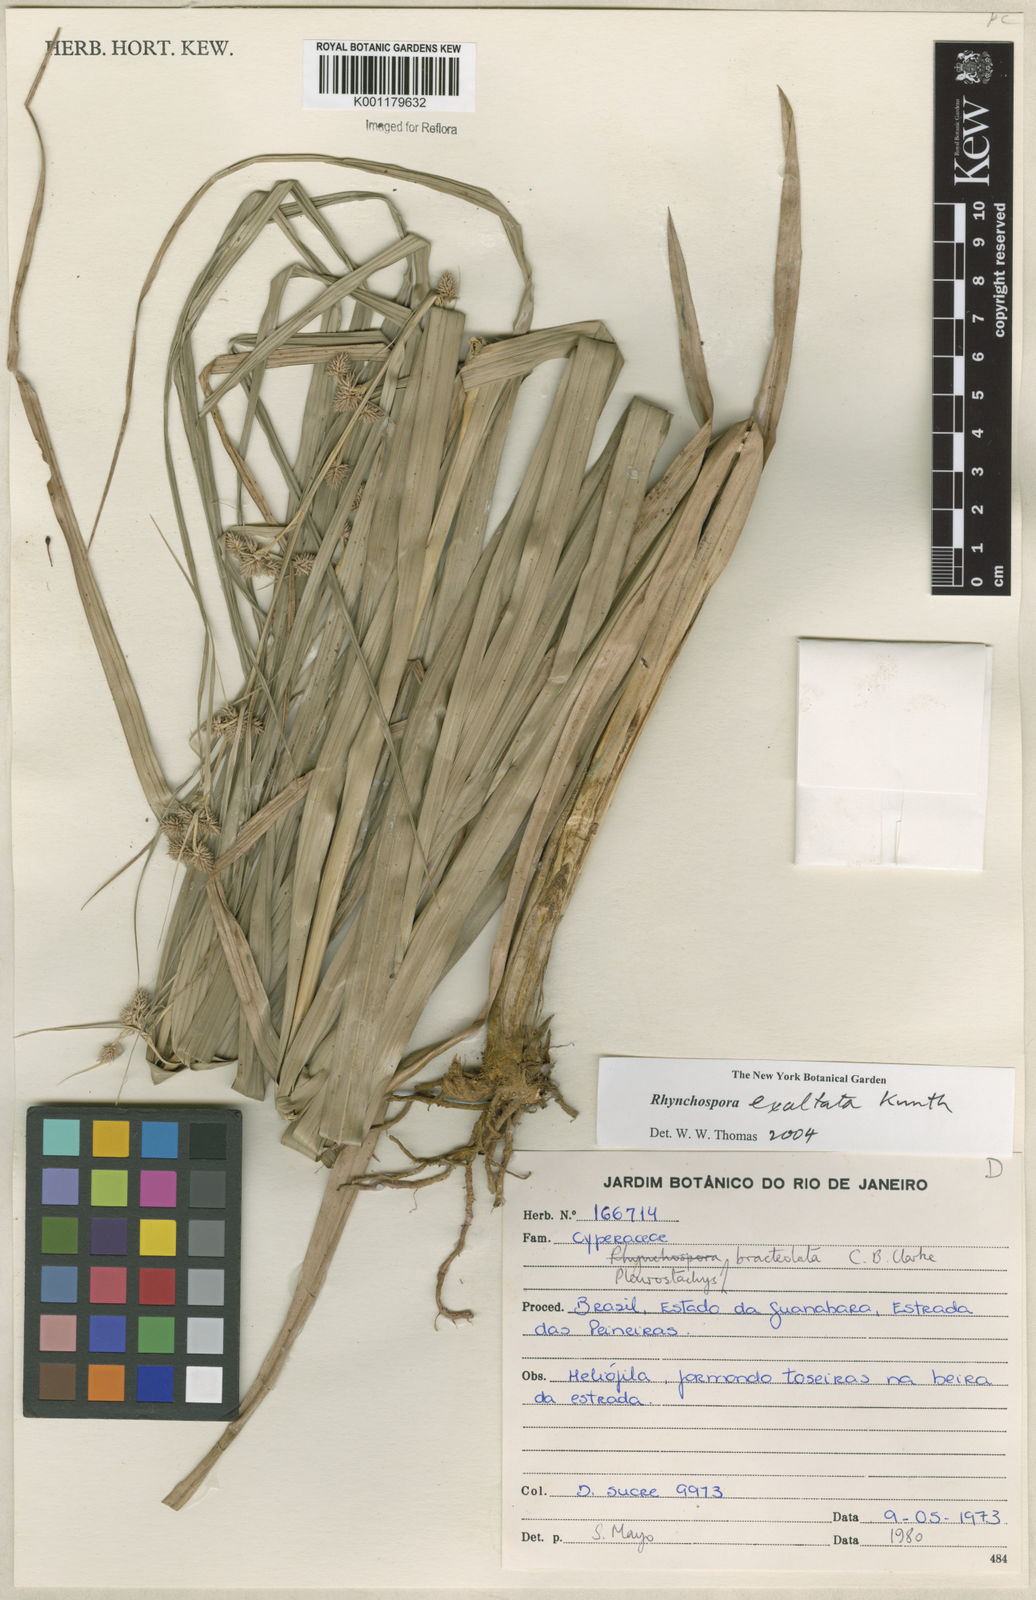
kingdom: Plantae
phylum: Tracheophyta
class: Liliopsida
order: Poales
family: Cyperaceae
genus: Rhynchospora
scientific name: Rhynchospora exaltata
